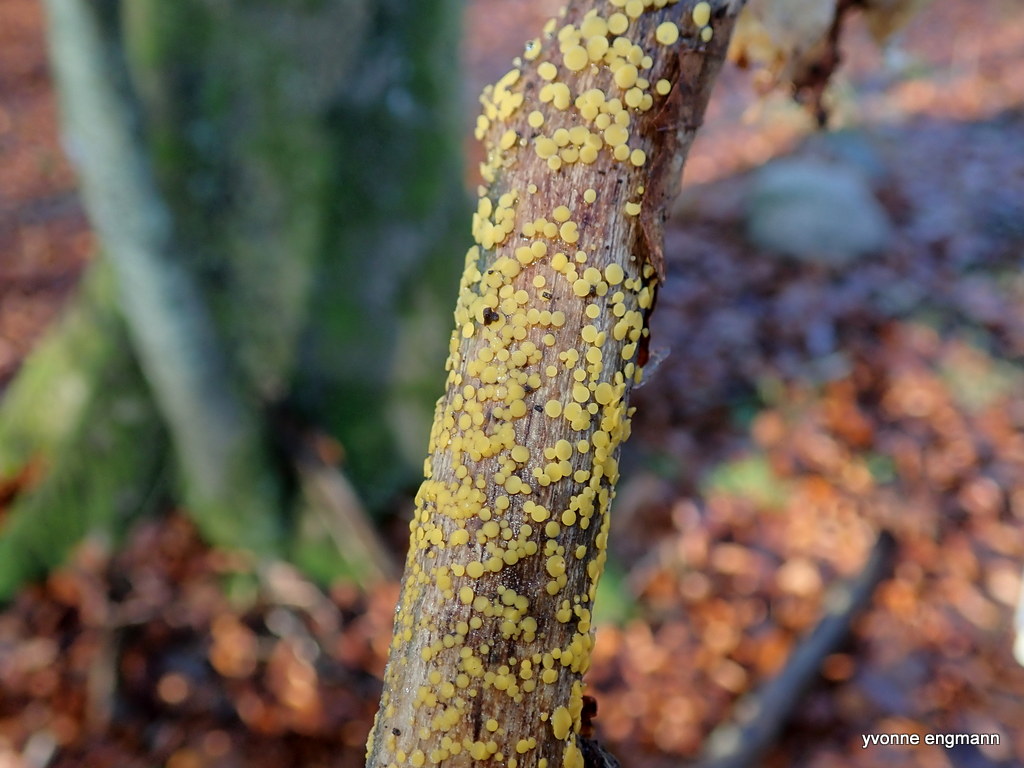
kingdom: Fungi
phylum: Ascomycota
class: Leotiomycetes
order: Helotiales
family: Pezizellaceae
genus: Calycina
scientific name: Calycina citrina
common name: almindelig gulskive
